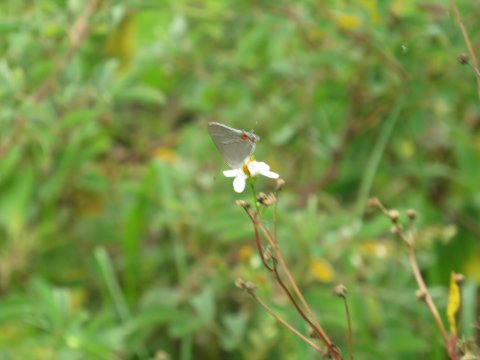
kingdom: Animalia
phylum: Arthropoda
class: Insecta
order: Lepidoptera
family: Lycaenidae
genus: Strymon
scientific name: Strymon melinus
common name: Gray Hairstreak
